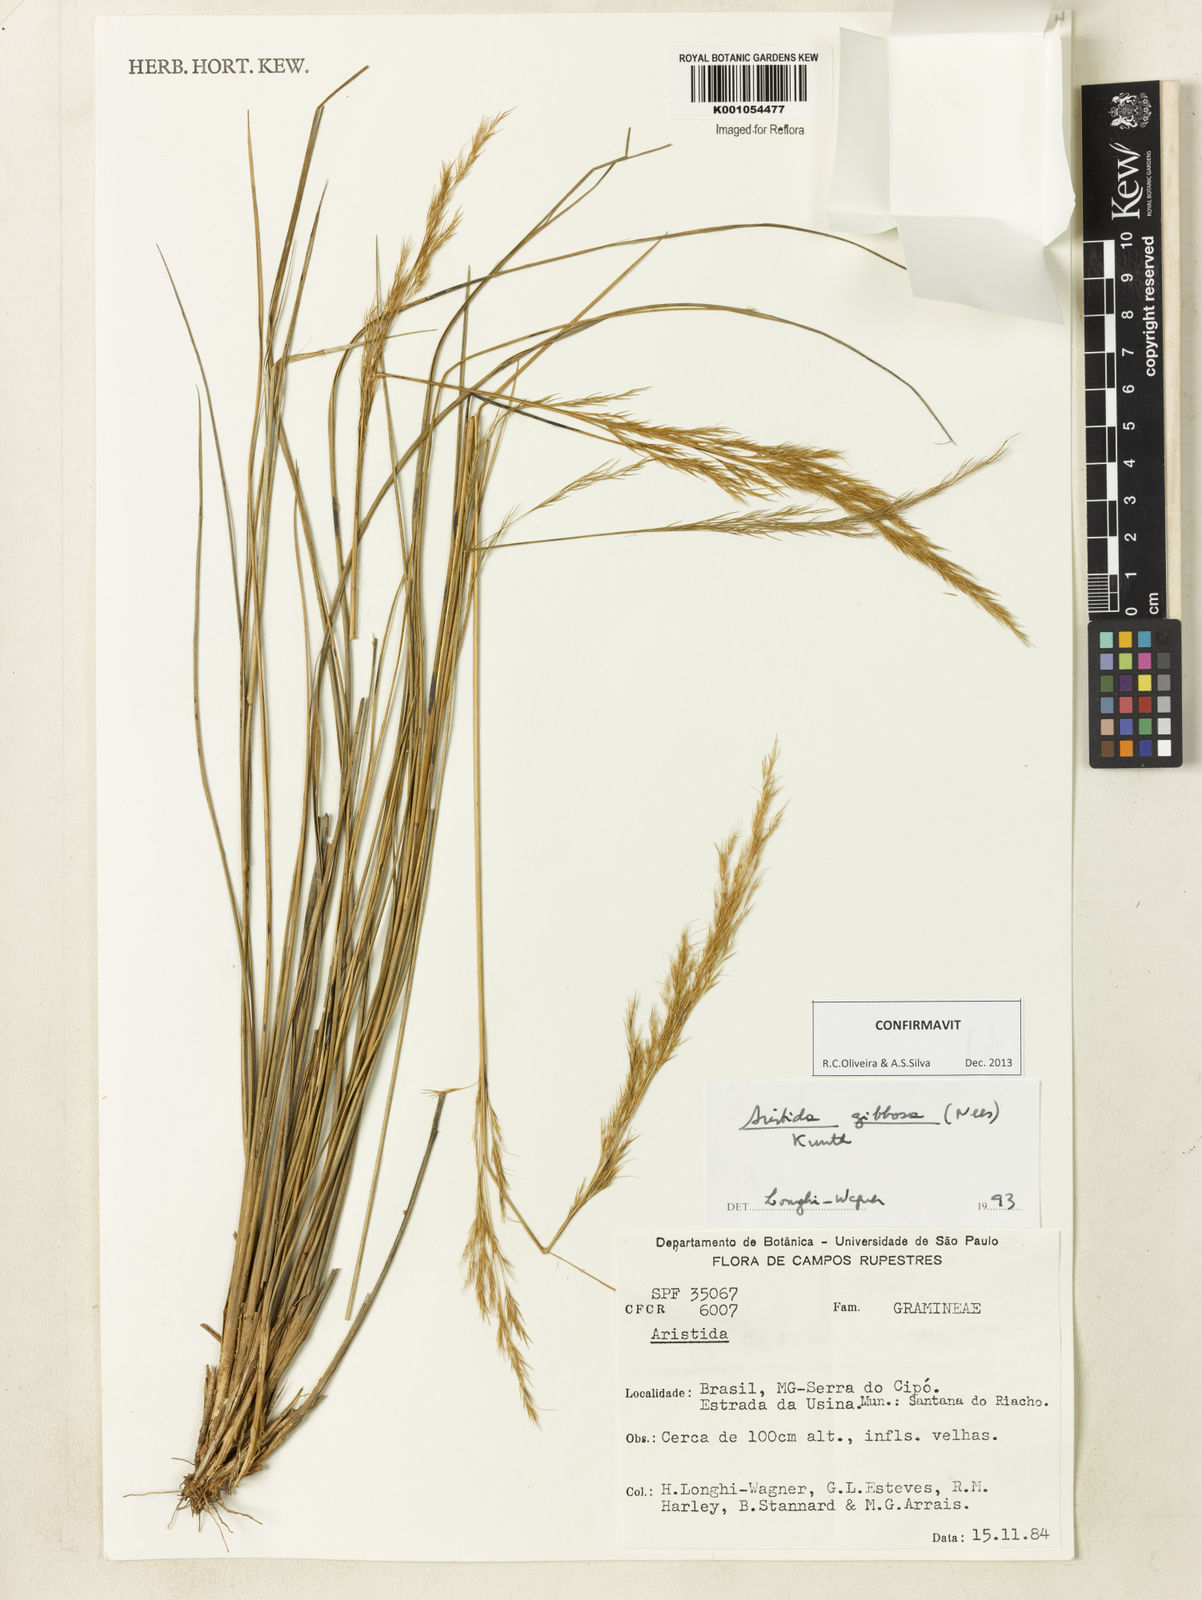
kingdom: Plantae
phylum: Tracheophyta
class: Liliopsida
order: Poales
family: Poaceae
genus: Aristida
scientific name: Aristida gibbosa
